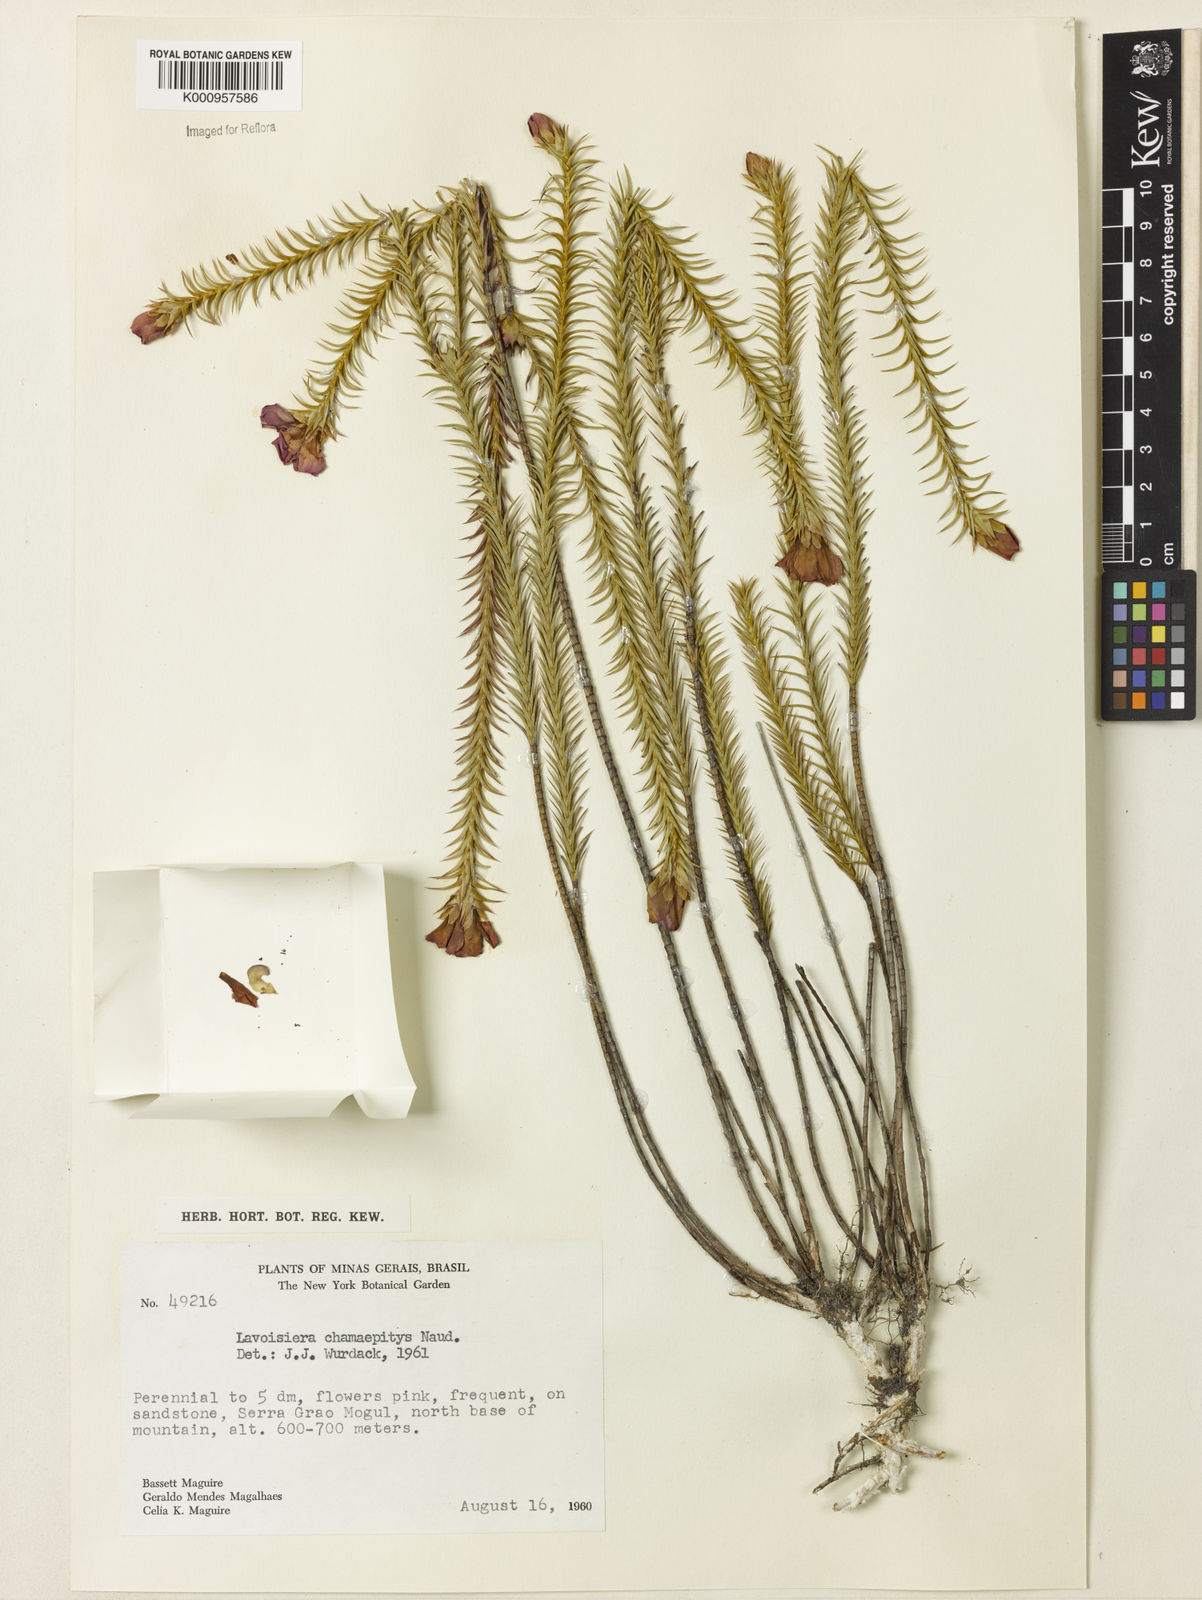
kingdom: Plantae
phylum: Tracheophyta
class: Magnoliopsida
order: Myrtales
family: Melastomataceae
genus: Microlicia
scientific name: Microlicia hilairei
